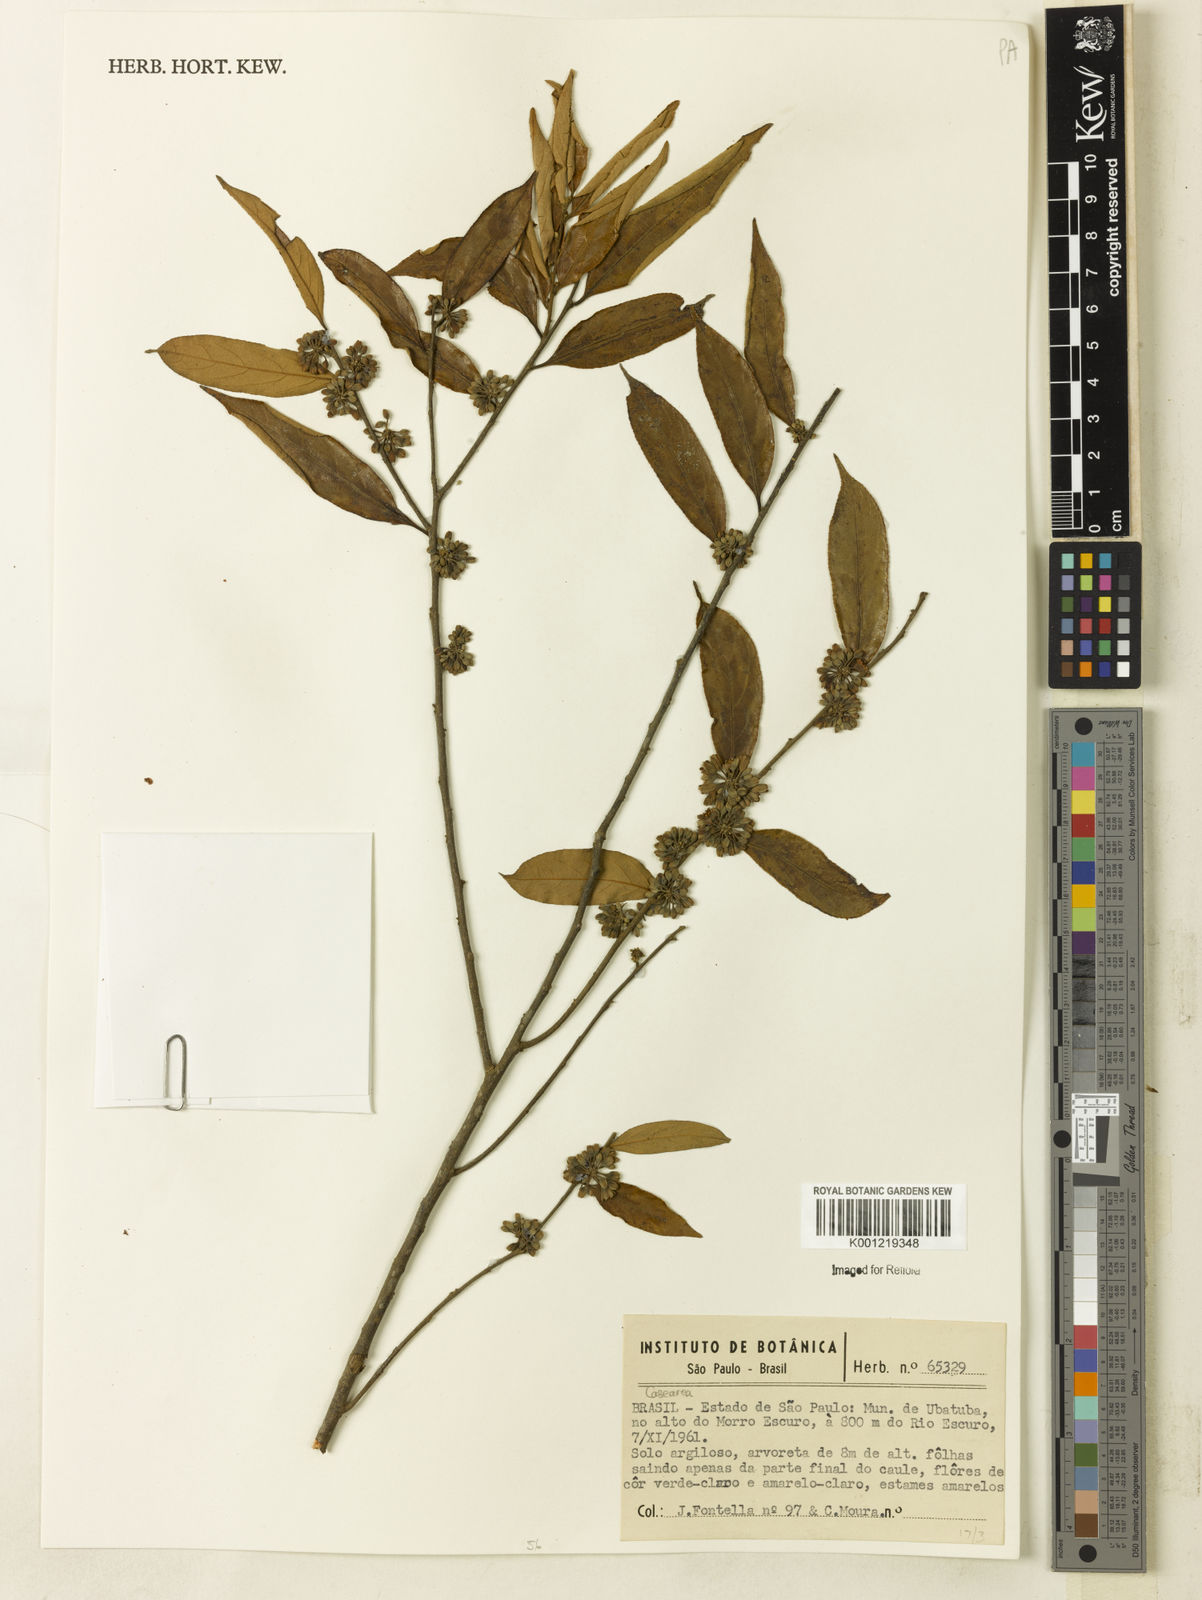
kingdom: Plantae
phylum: Tracheophyta
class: Magnoliopsida
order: Malpighiales
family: Salicaceae
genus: Casearia
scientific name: Casearia
